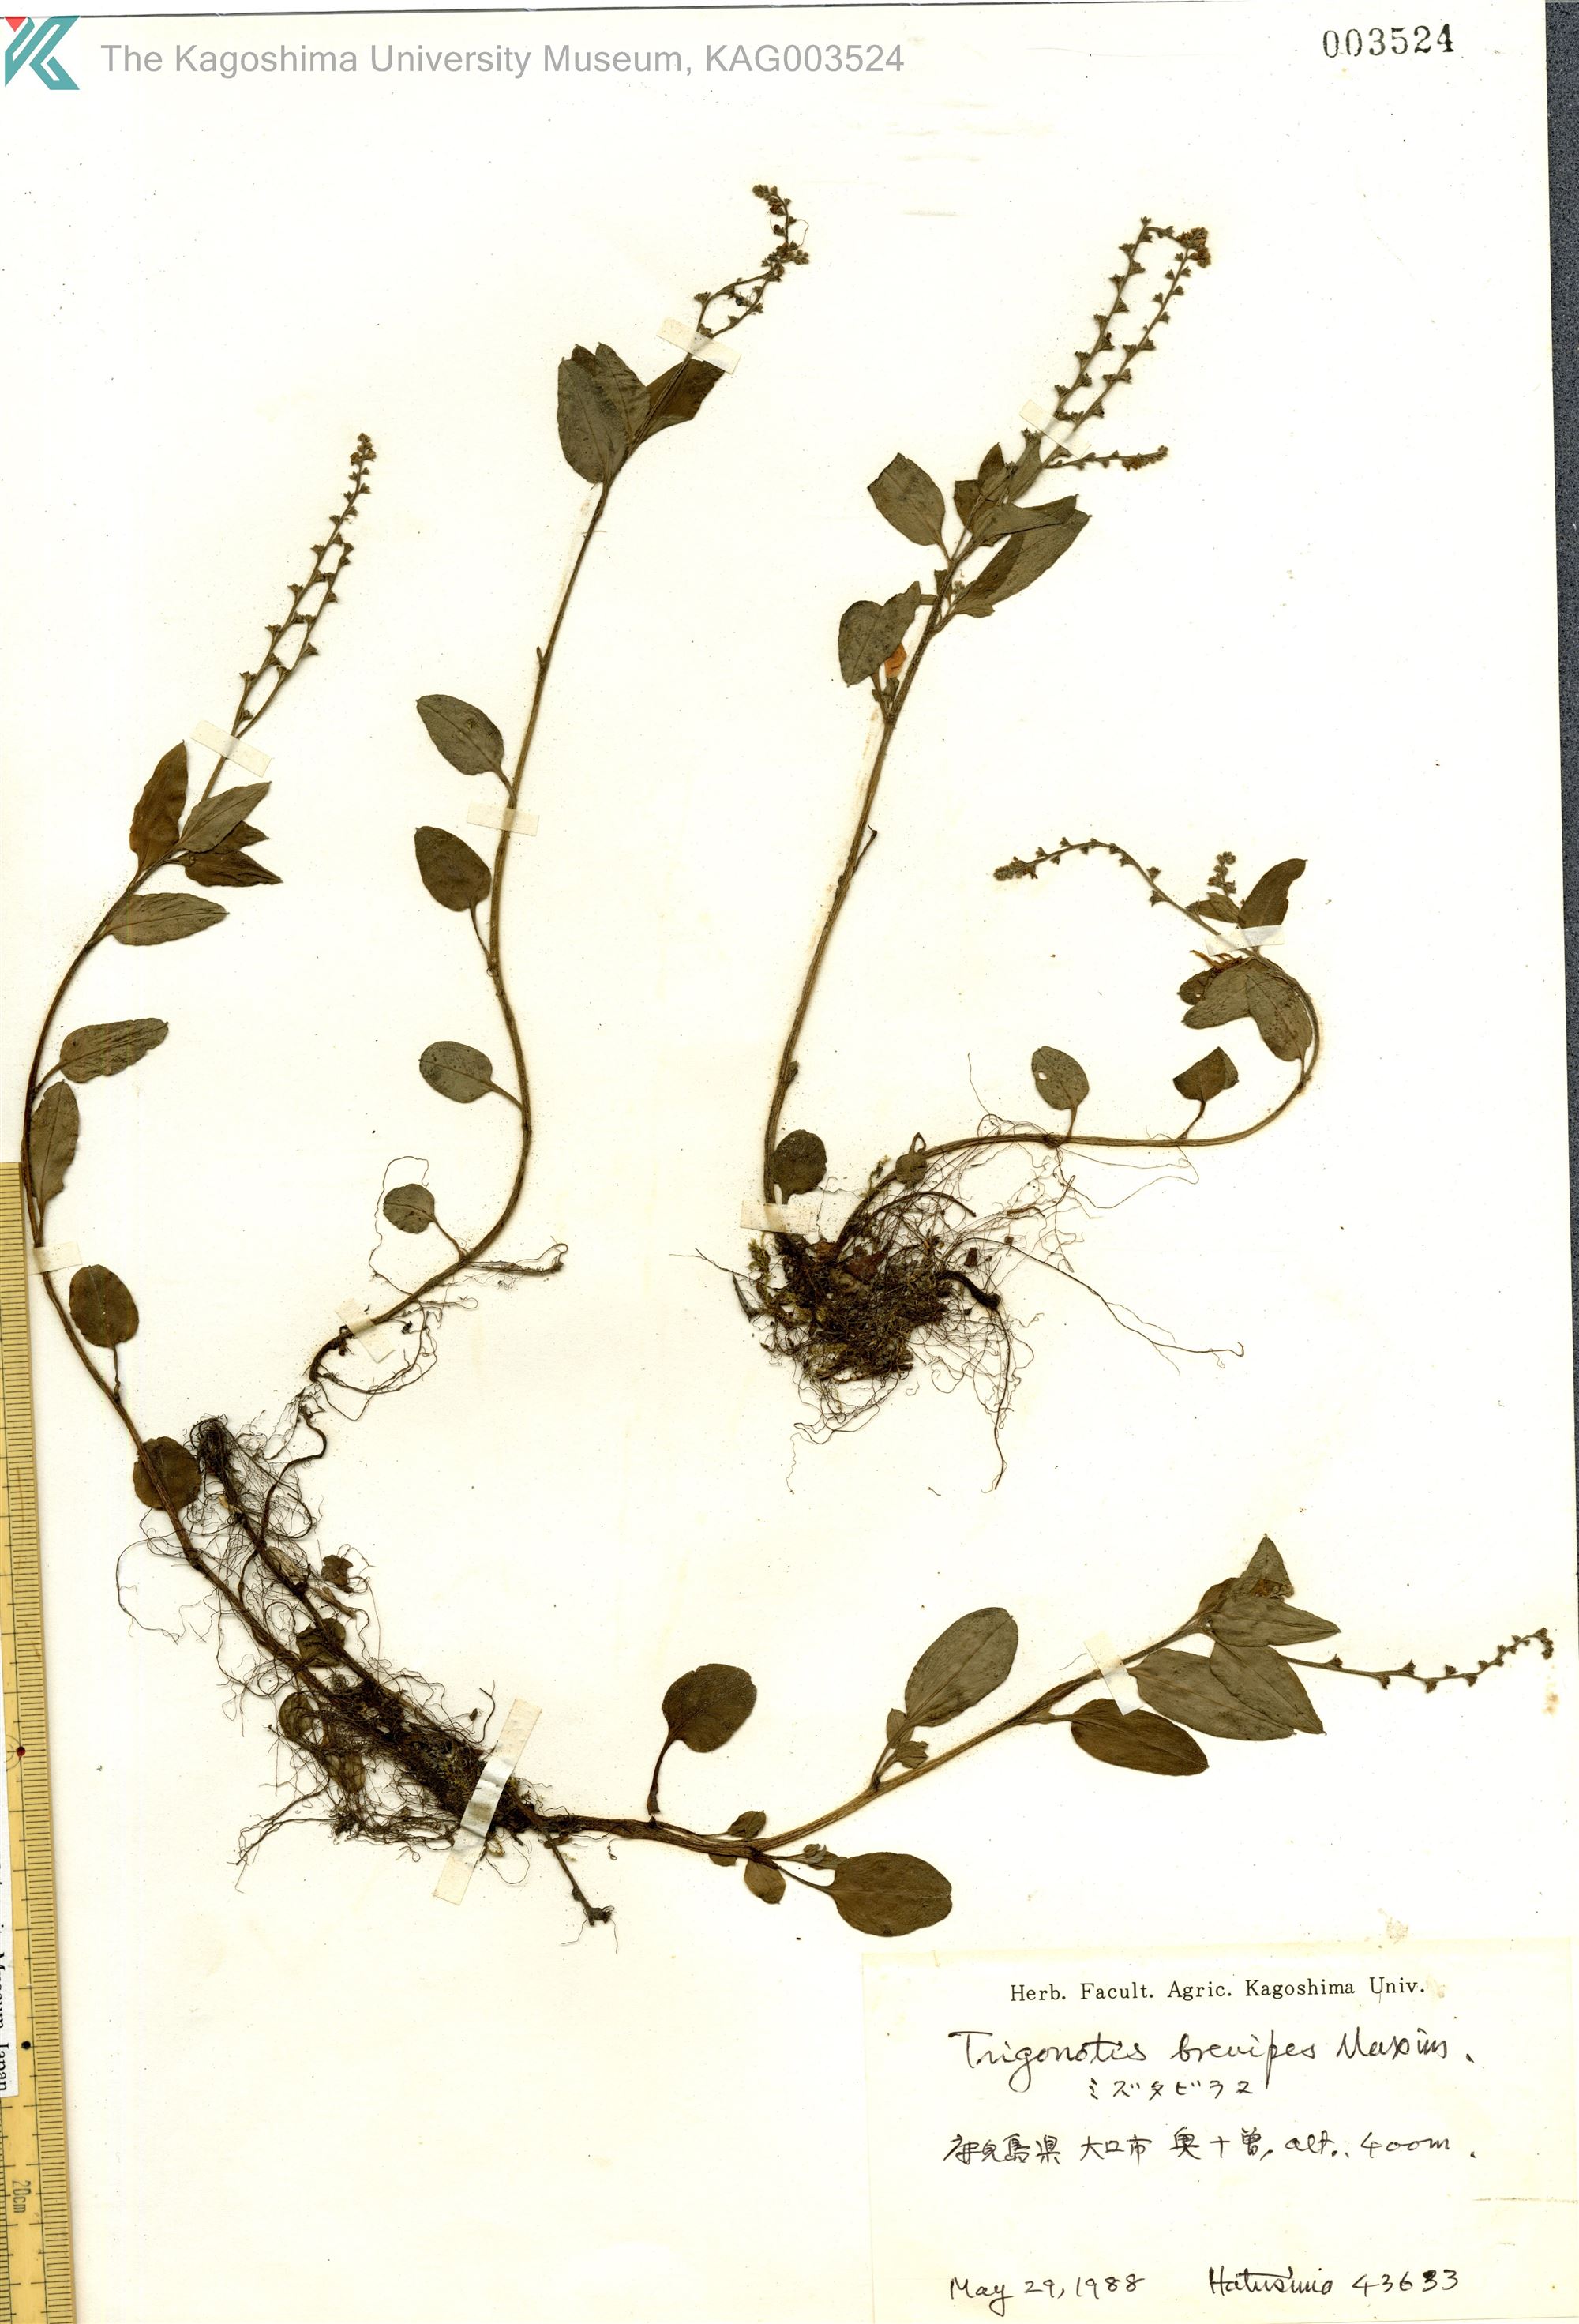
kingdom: Plantae
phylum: Tracheophyta
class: Magnoliopsida
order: Boraginales
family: Boraginaceae
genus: Trigonotis
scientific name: Trigonotis brevipes
